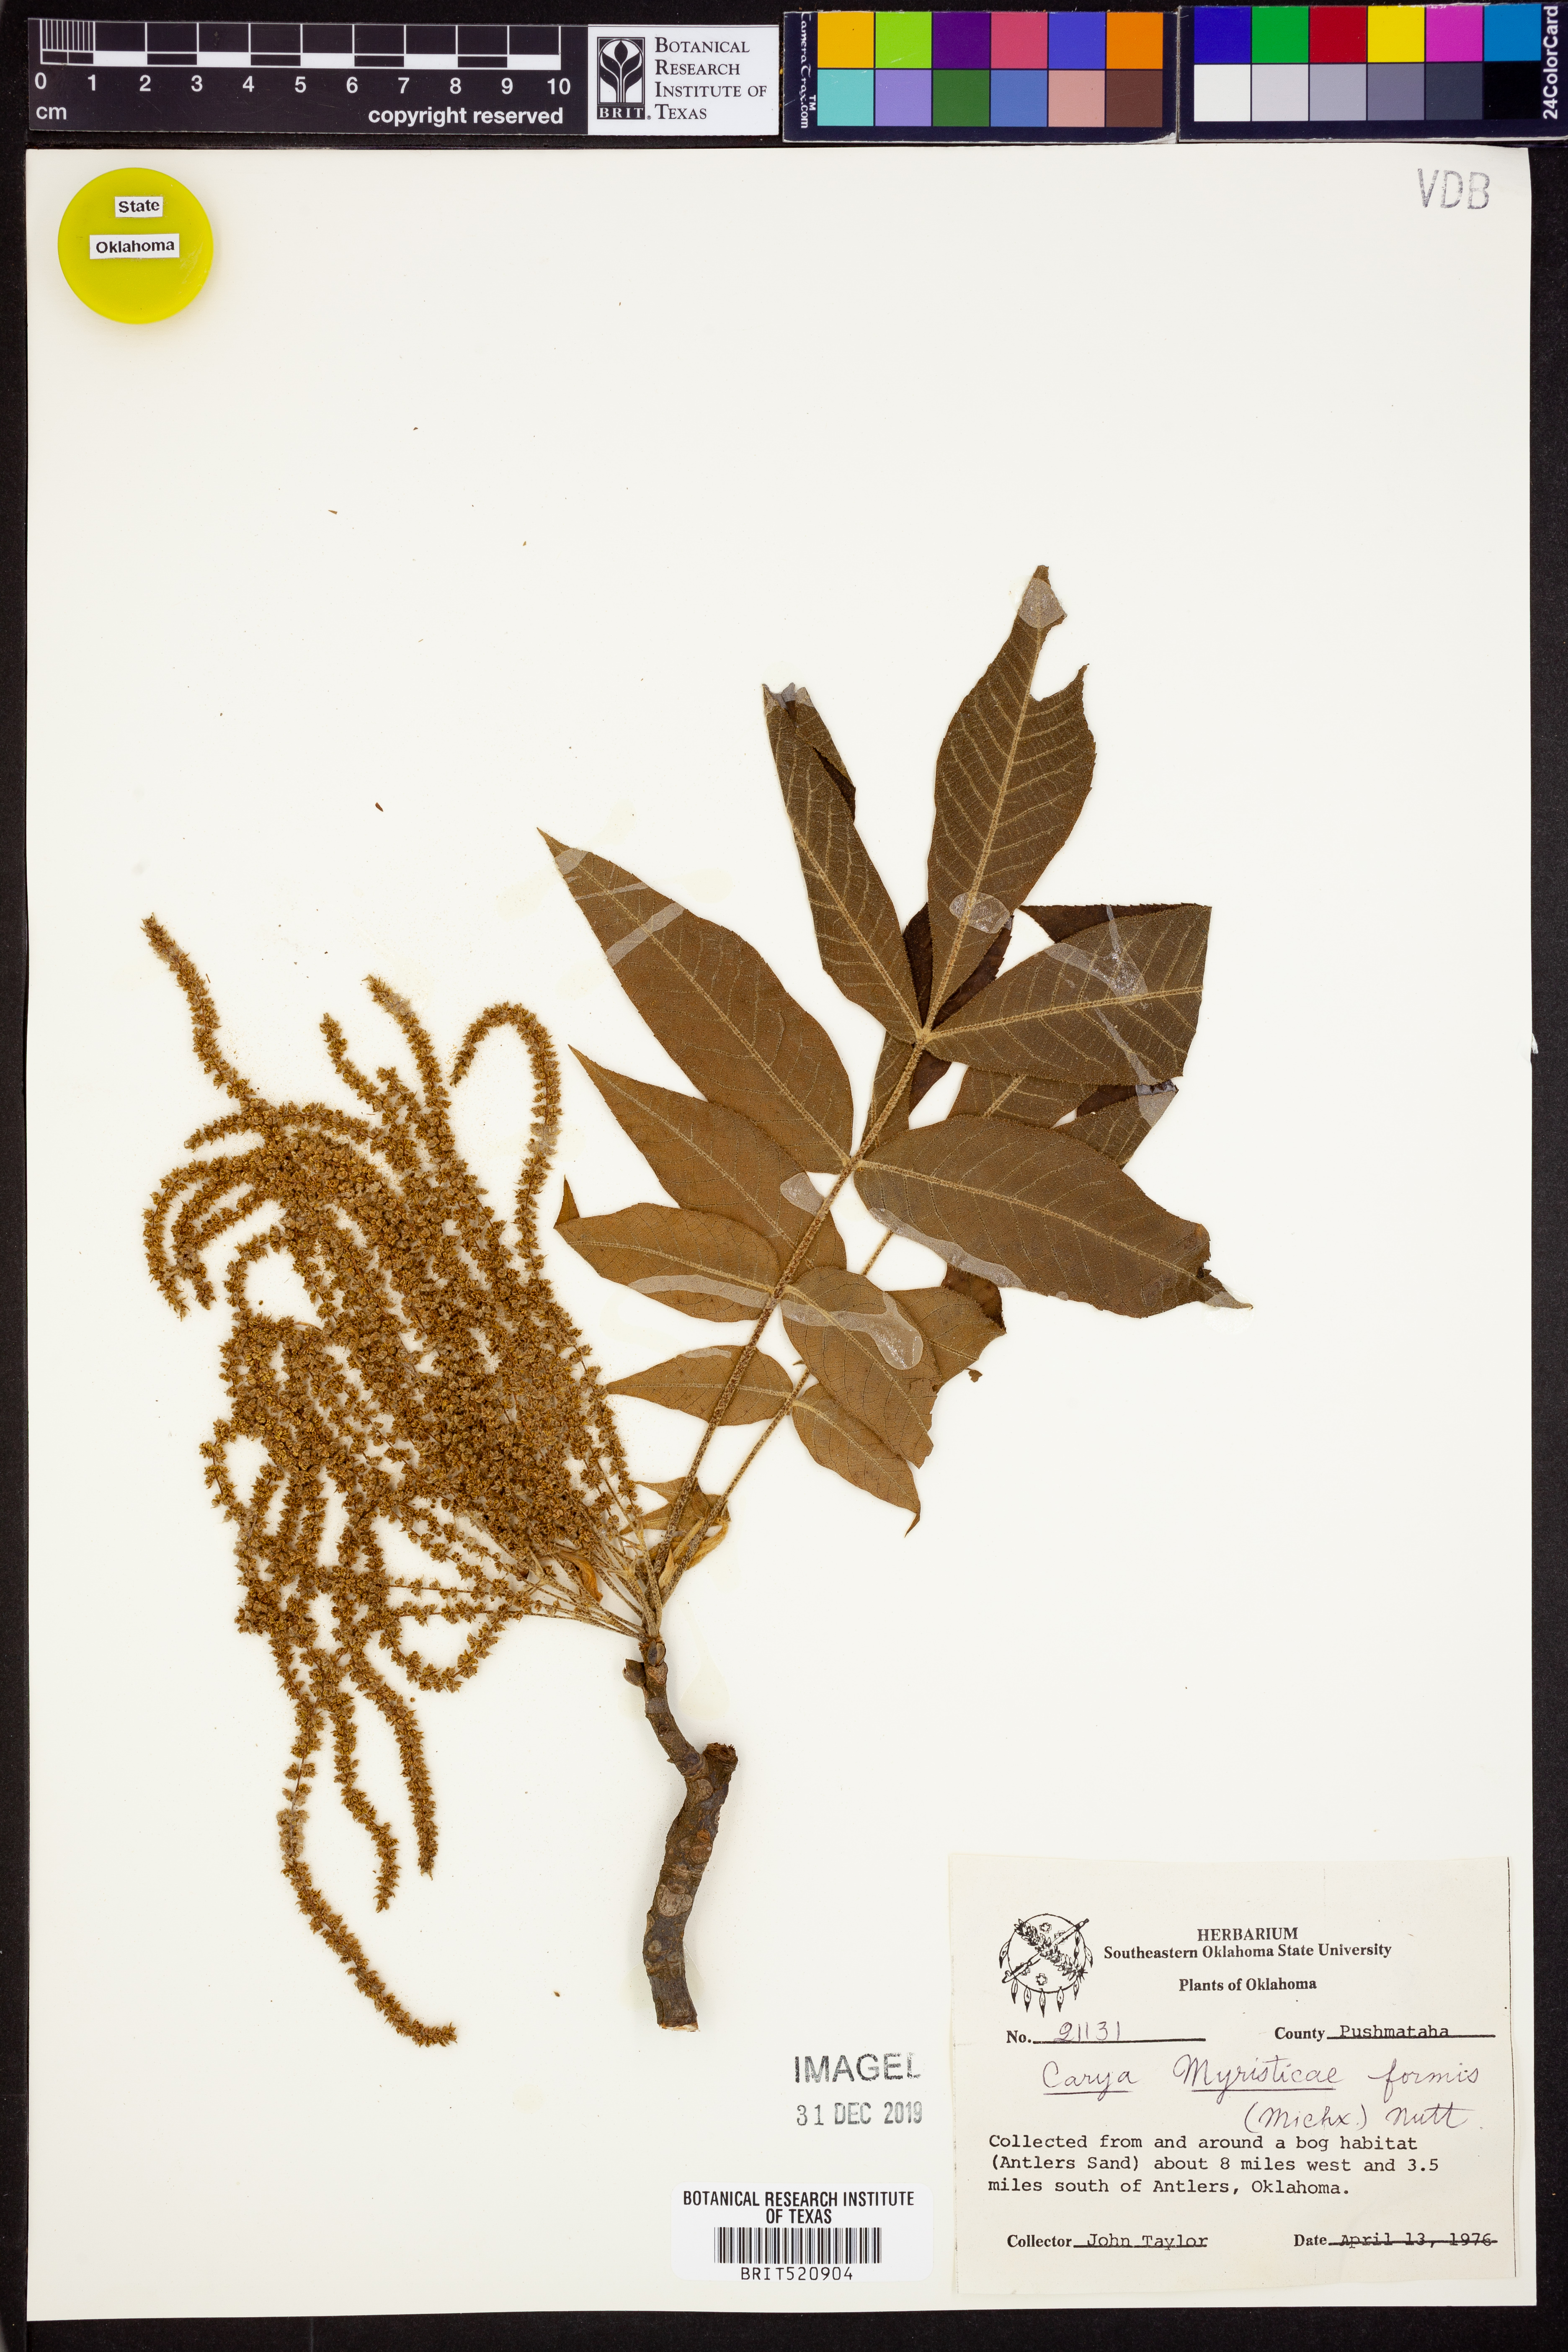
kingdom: Plantae
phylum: Tracheophyta
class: Magnoliopsida
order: Fagales
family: Juglandaceae
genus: Carya
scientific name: Carya aquatica
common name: Water hickory
